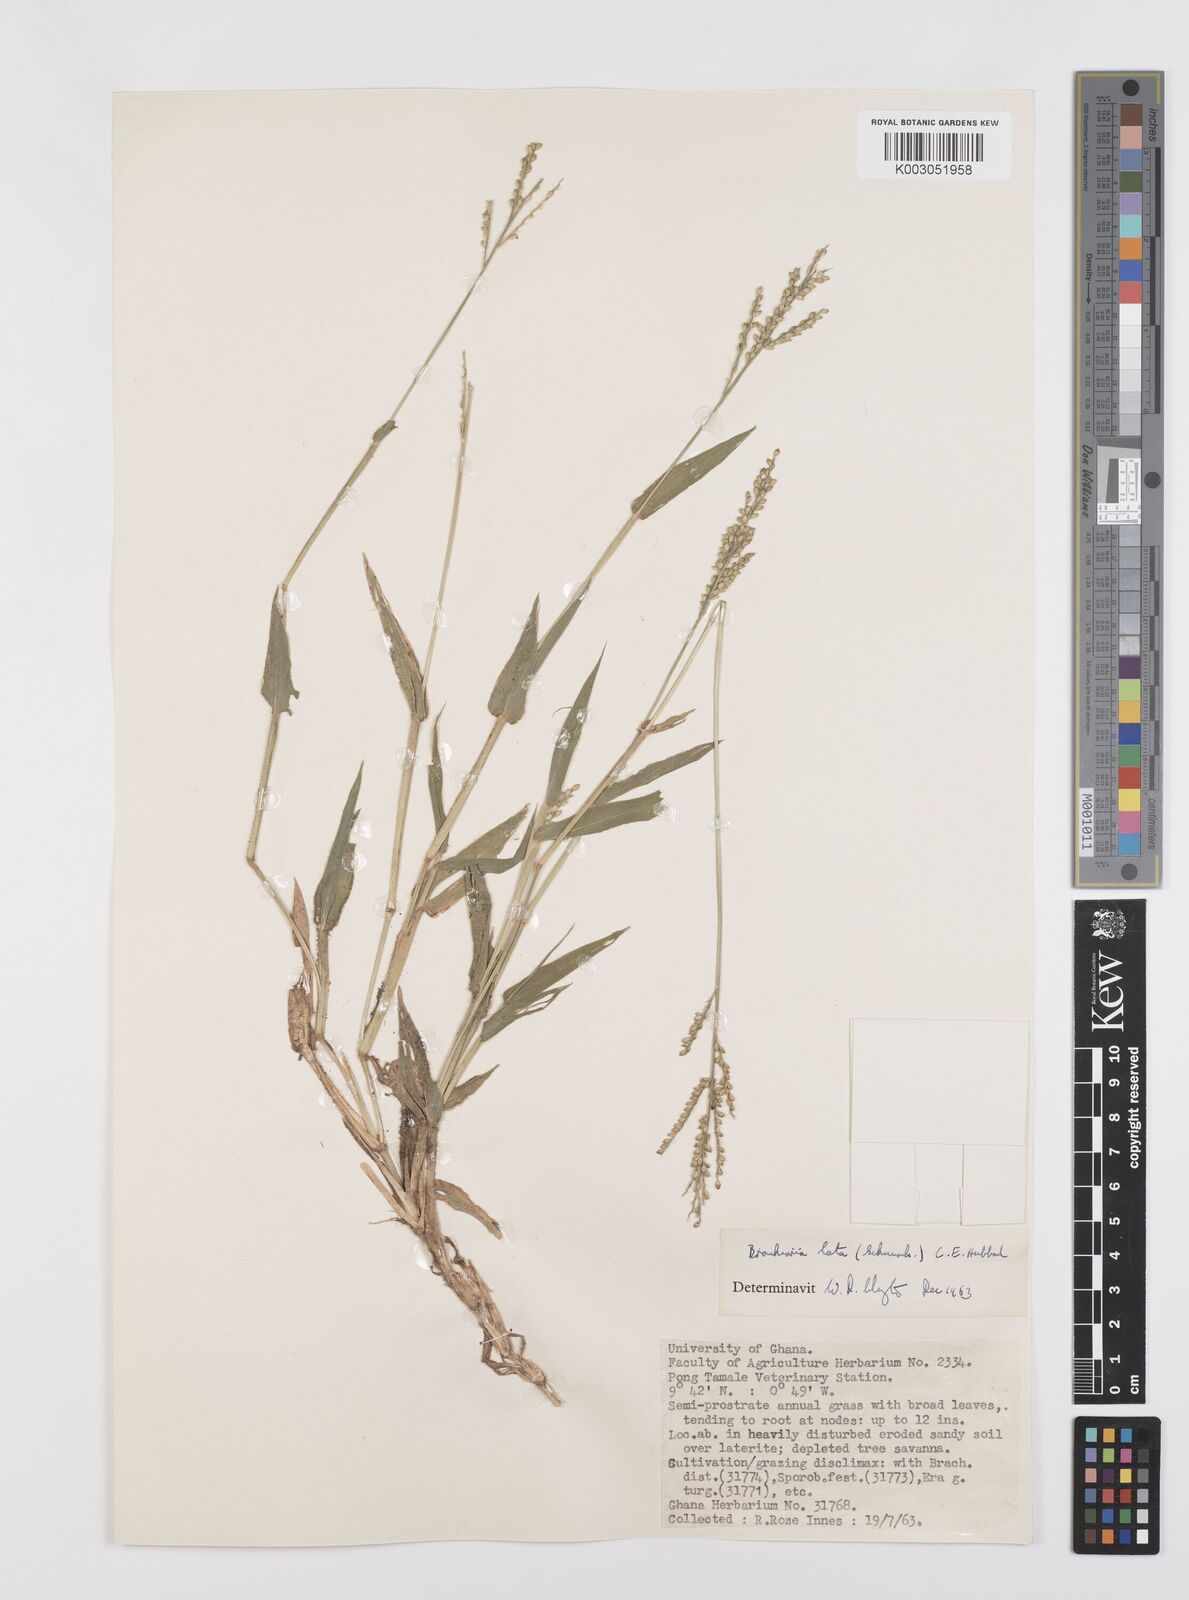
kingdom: Plantae
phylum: Tracheophyta
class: Liliopsida
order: Poales
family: Poaceae
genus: Urochloa
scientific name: Urochloa lata
